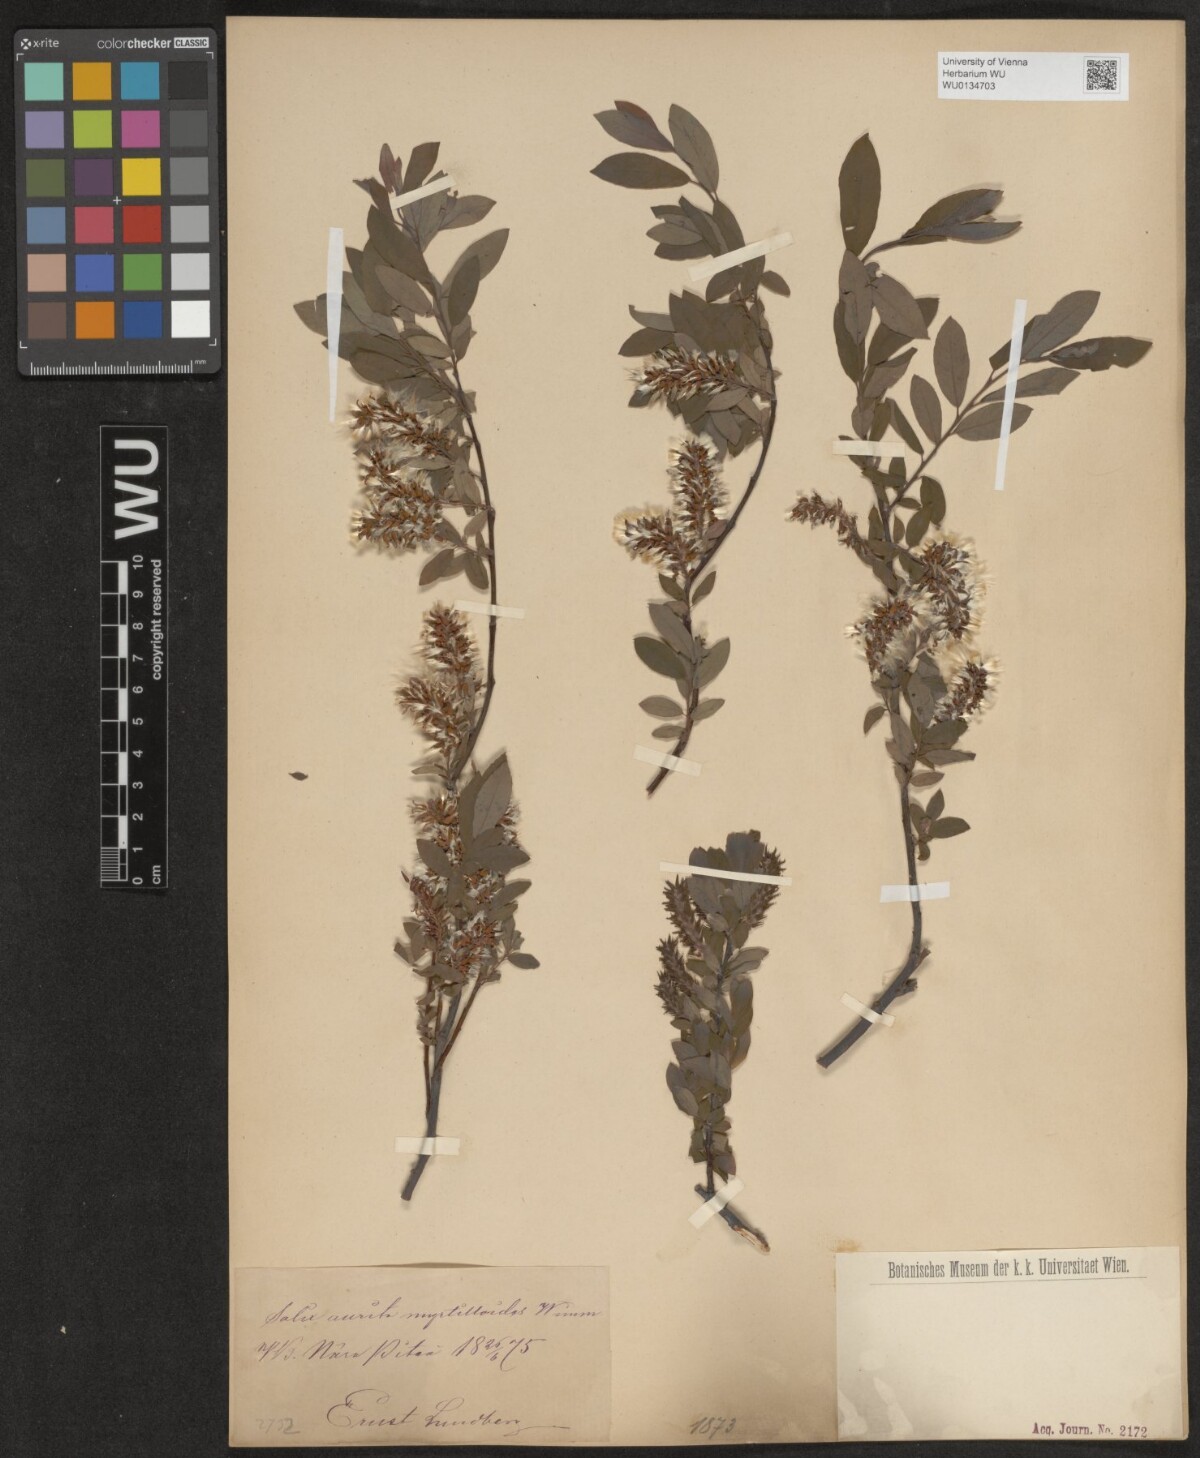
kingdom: Plantae
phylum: Tracheophyta
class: Magnoliopsida
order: Malpighiales
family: Salicaceae
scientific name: Salicaceae
